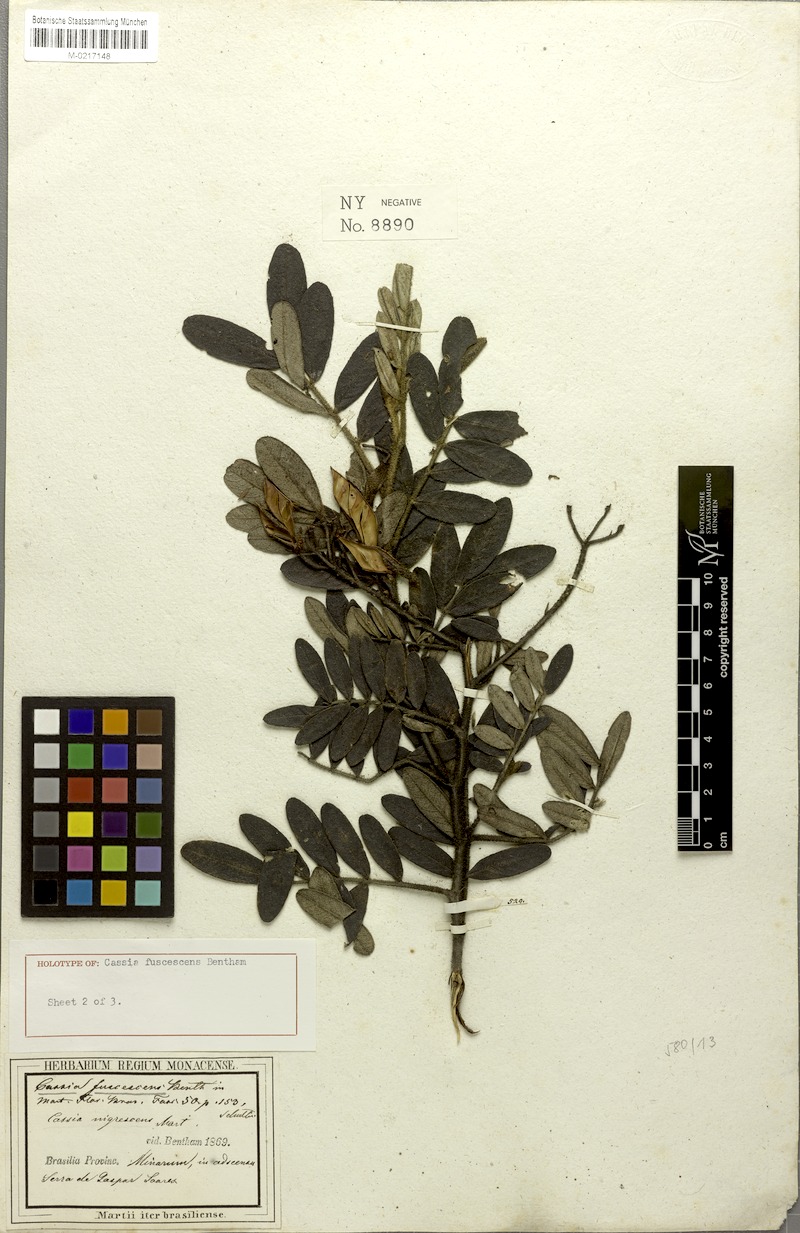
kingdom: Plantae
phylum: Tracheophyta
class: Magnoliopsida
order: Fabales
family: Fabaceae
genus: Cassia
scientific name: Cassia
